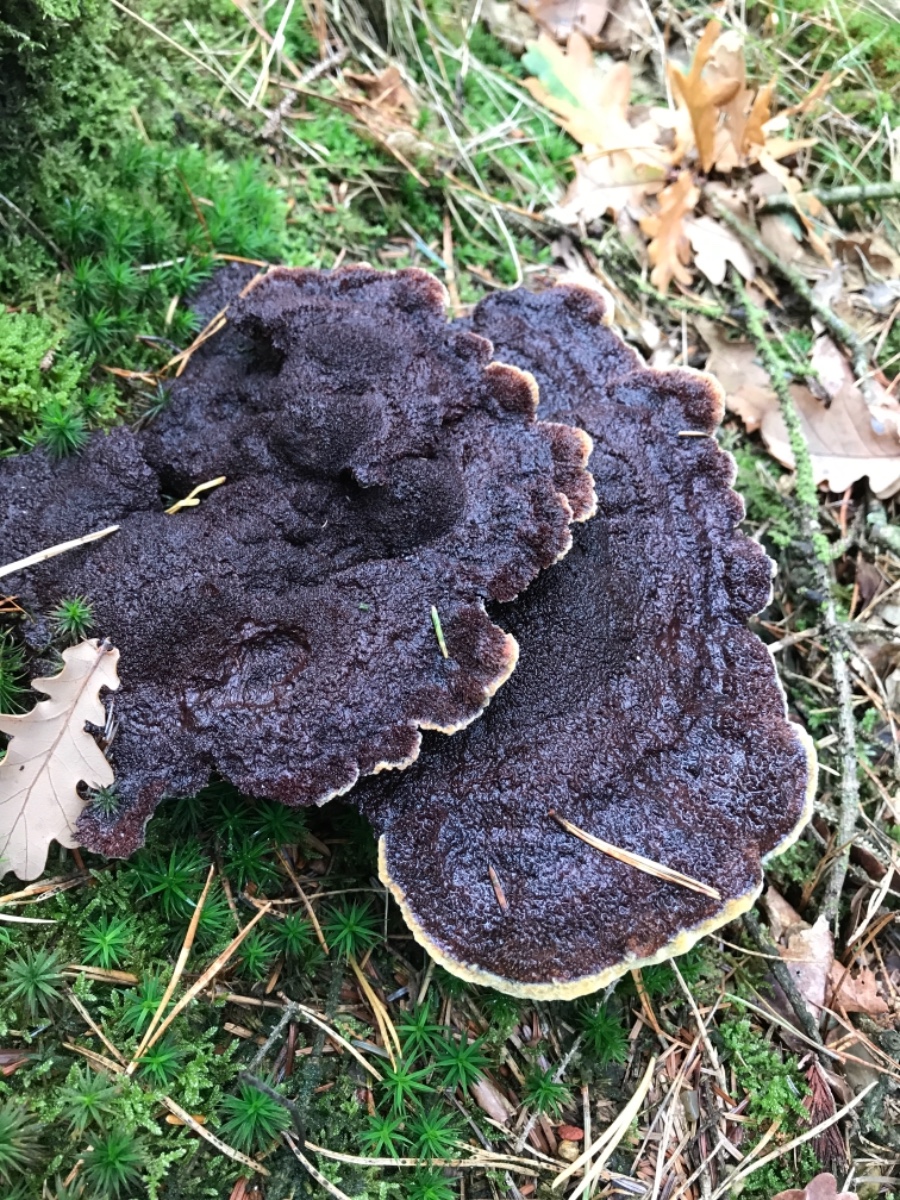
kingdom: Fungi
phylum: Basidiomycota
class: Agaricomycetes
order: Polyporales
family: Laetiporaceae
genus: Phaeolus
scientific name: Phaeolus schweinitzii
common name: brunporesvamp
